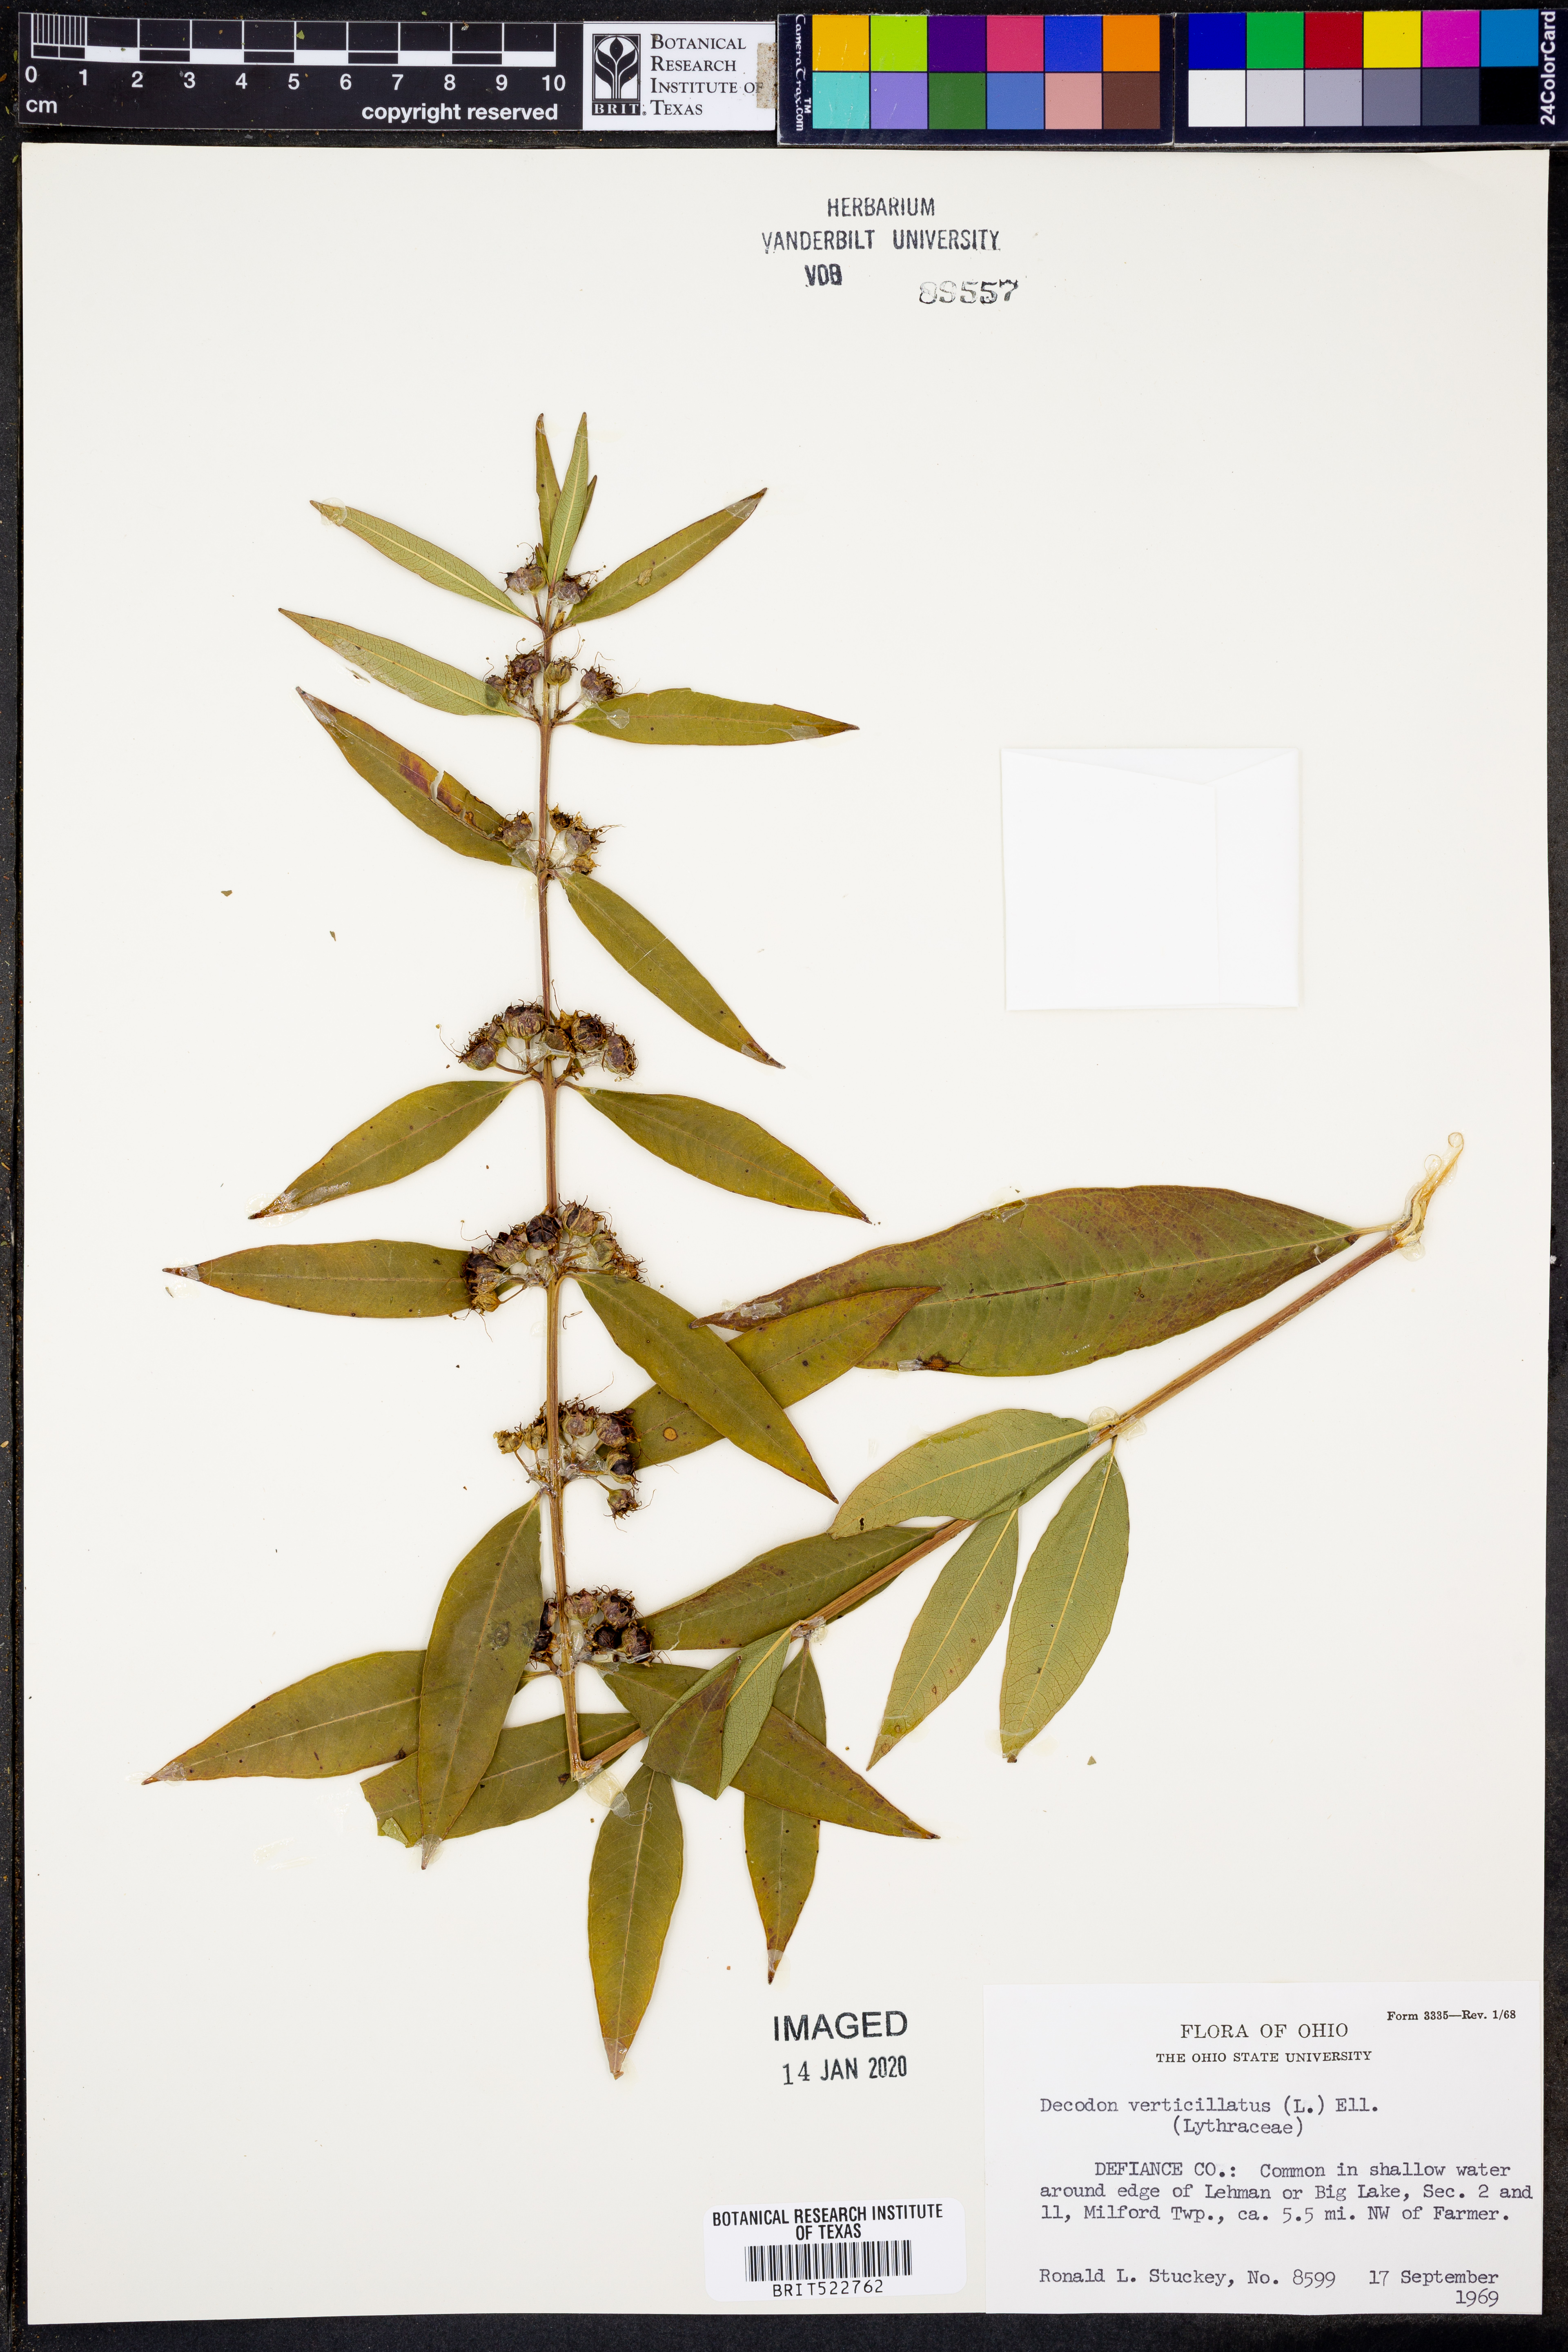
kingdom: Plantae
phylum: Tracheophyta
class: Magnoliopsida
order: Myrtales
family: Lythraceae
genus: Decodon
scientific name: Decodon verticillatus
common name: Hairy swamp loosestrife
